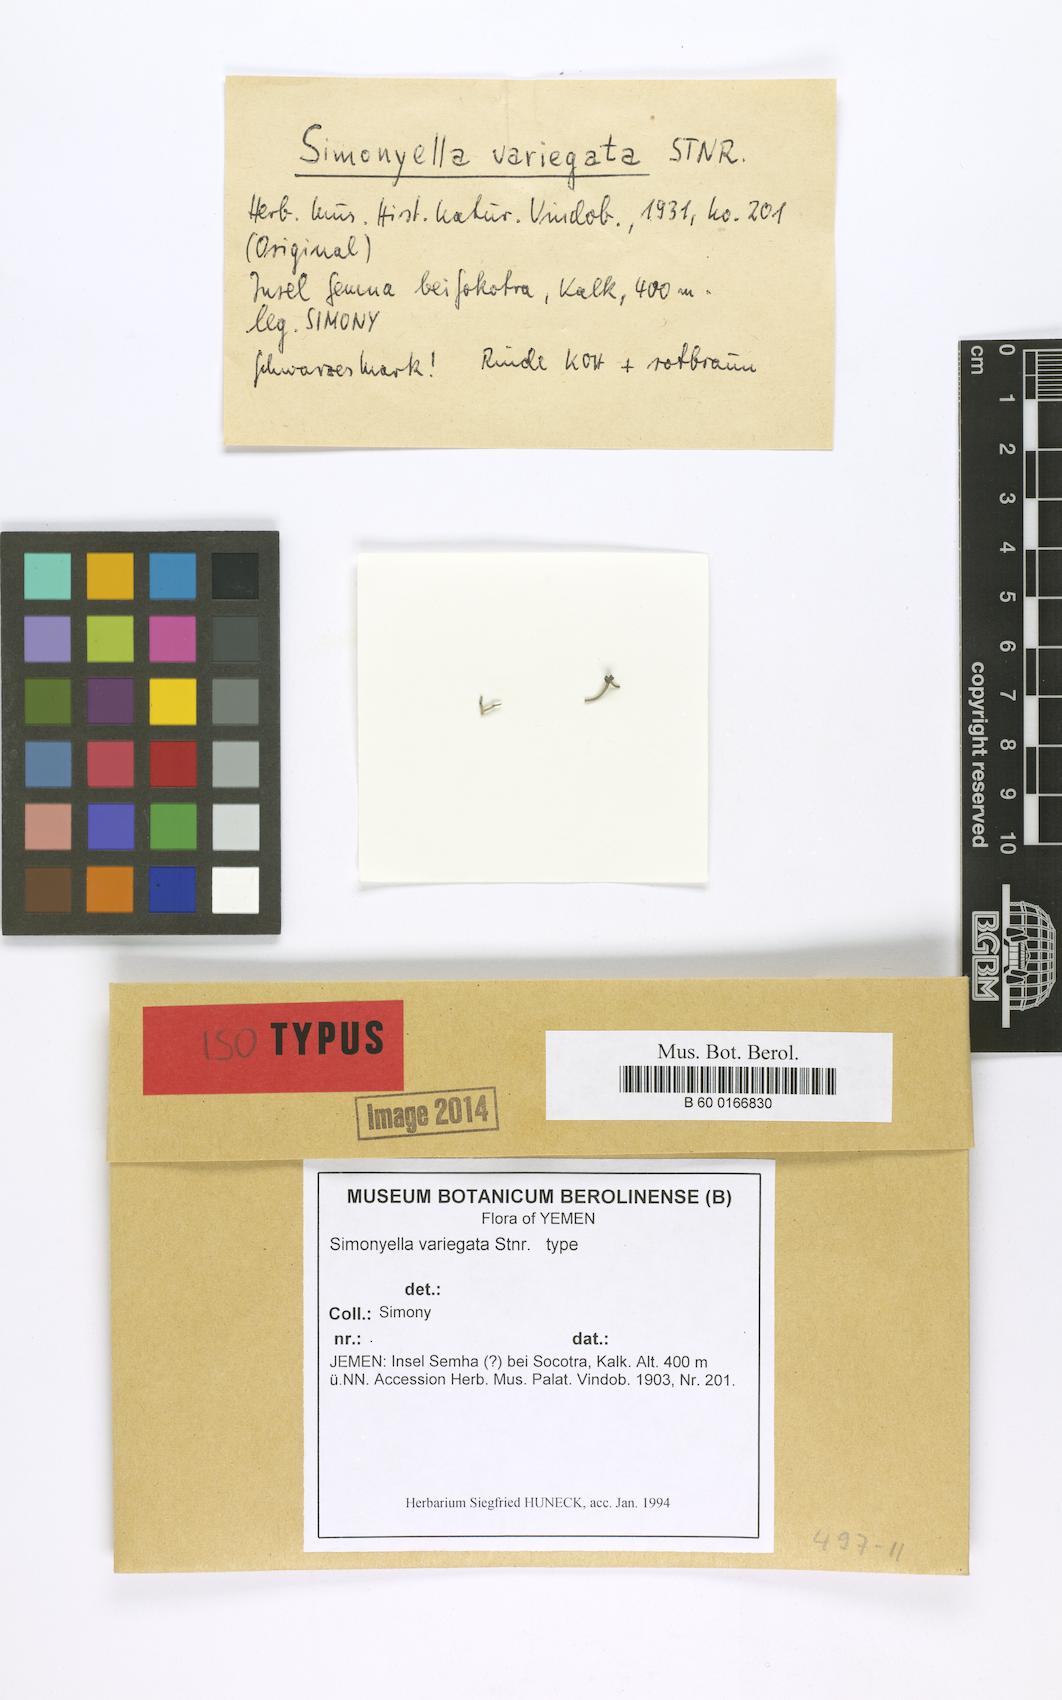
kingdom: Fungi
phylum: Ascomycota
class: Arthoniomycetes
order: Arthoniales
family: Roccellaceae
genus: Simonyella
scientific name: Simonyella variegata
